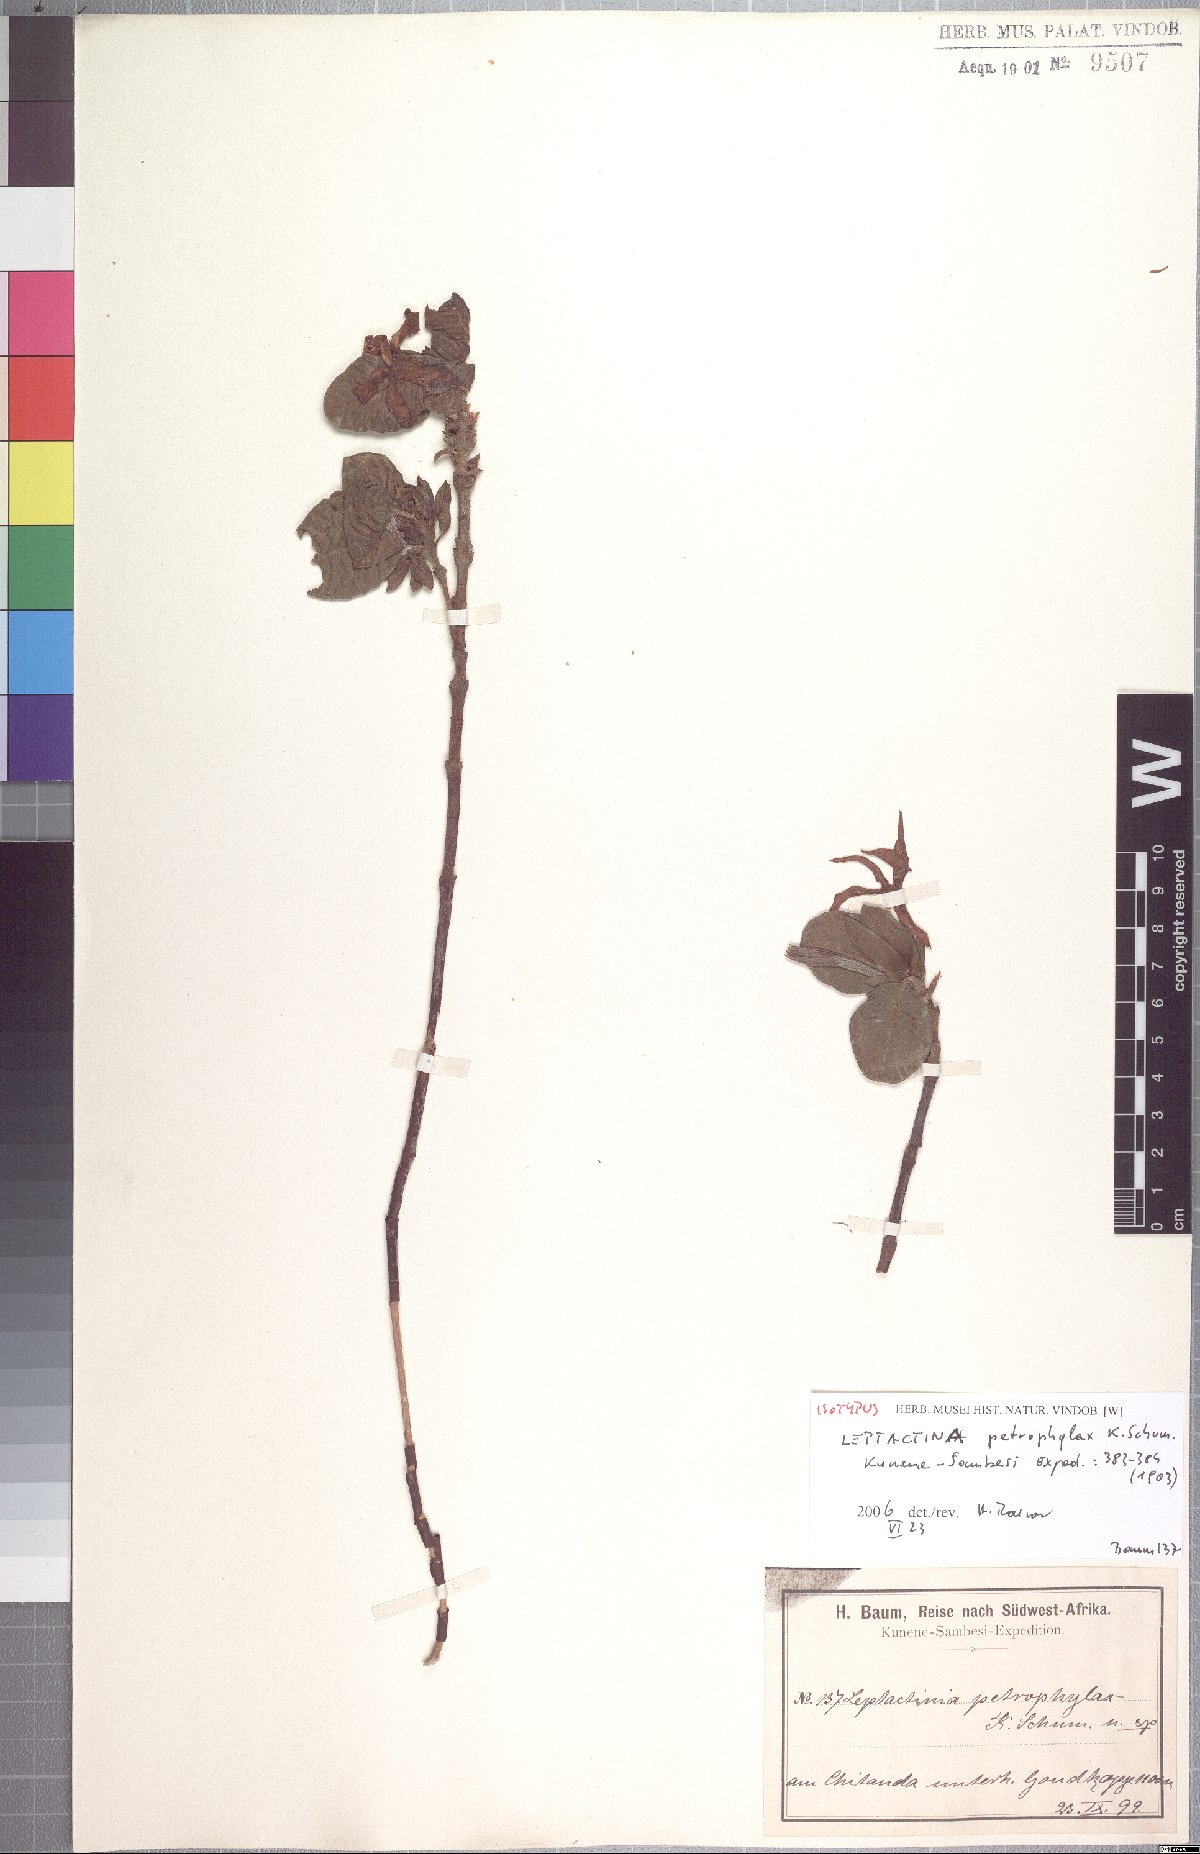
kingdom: Plantae
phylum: Tracheophyta
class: Magnoliopsida
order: Gentianales
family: Rubiaceae
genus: Leptactina
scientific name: Leptactina
